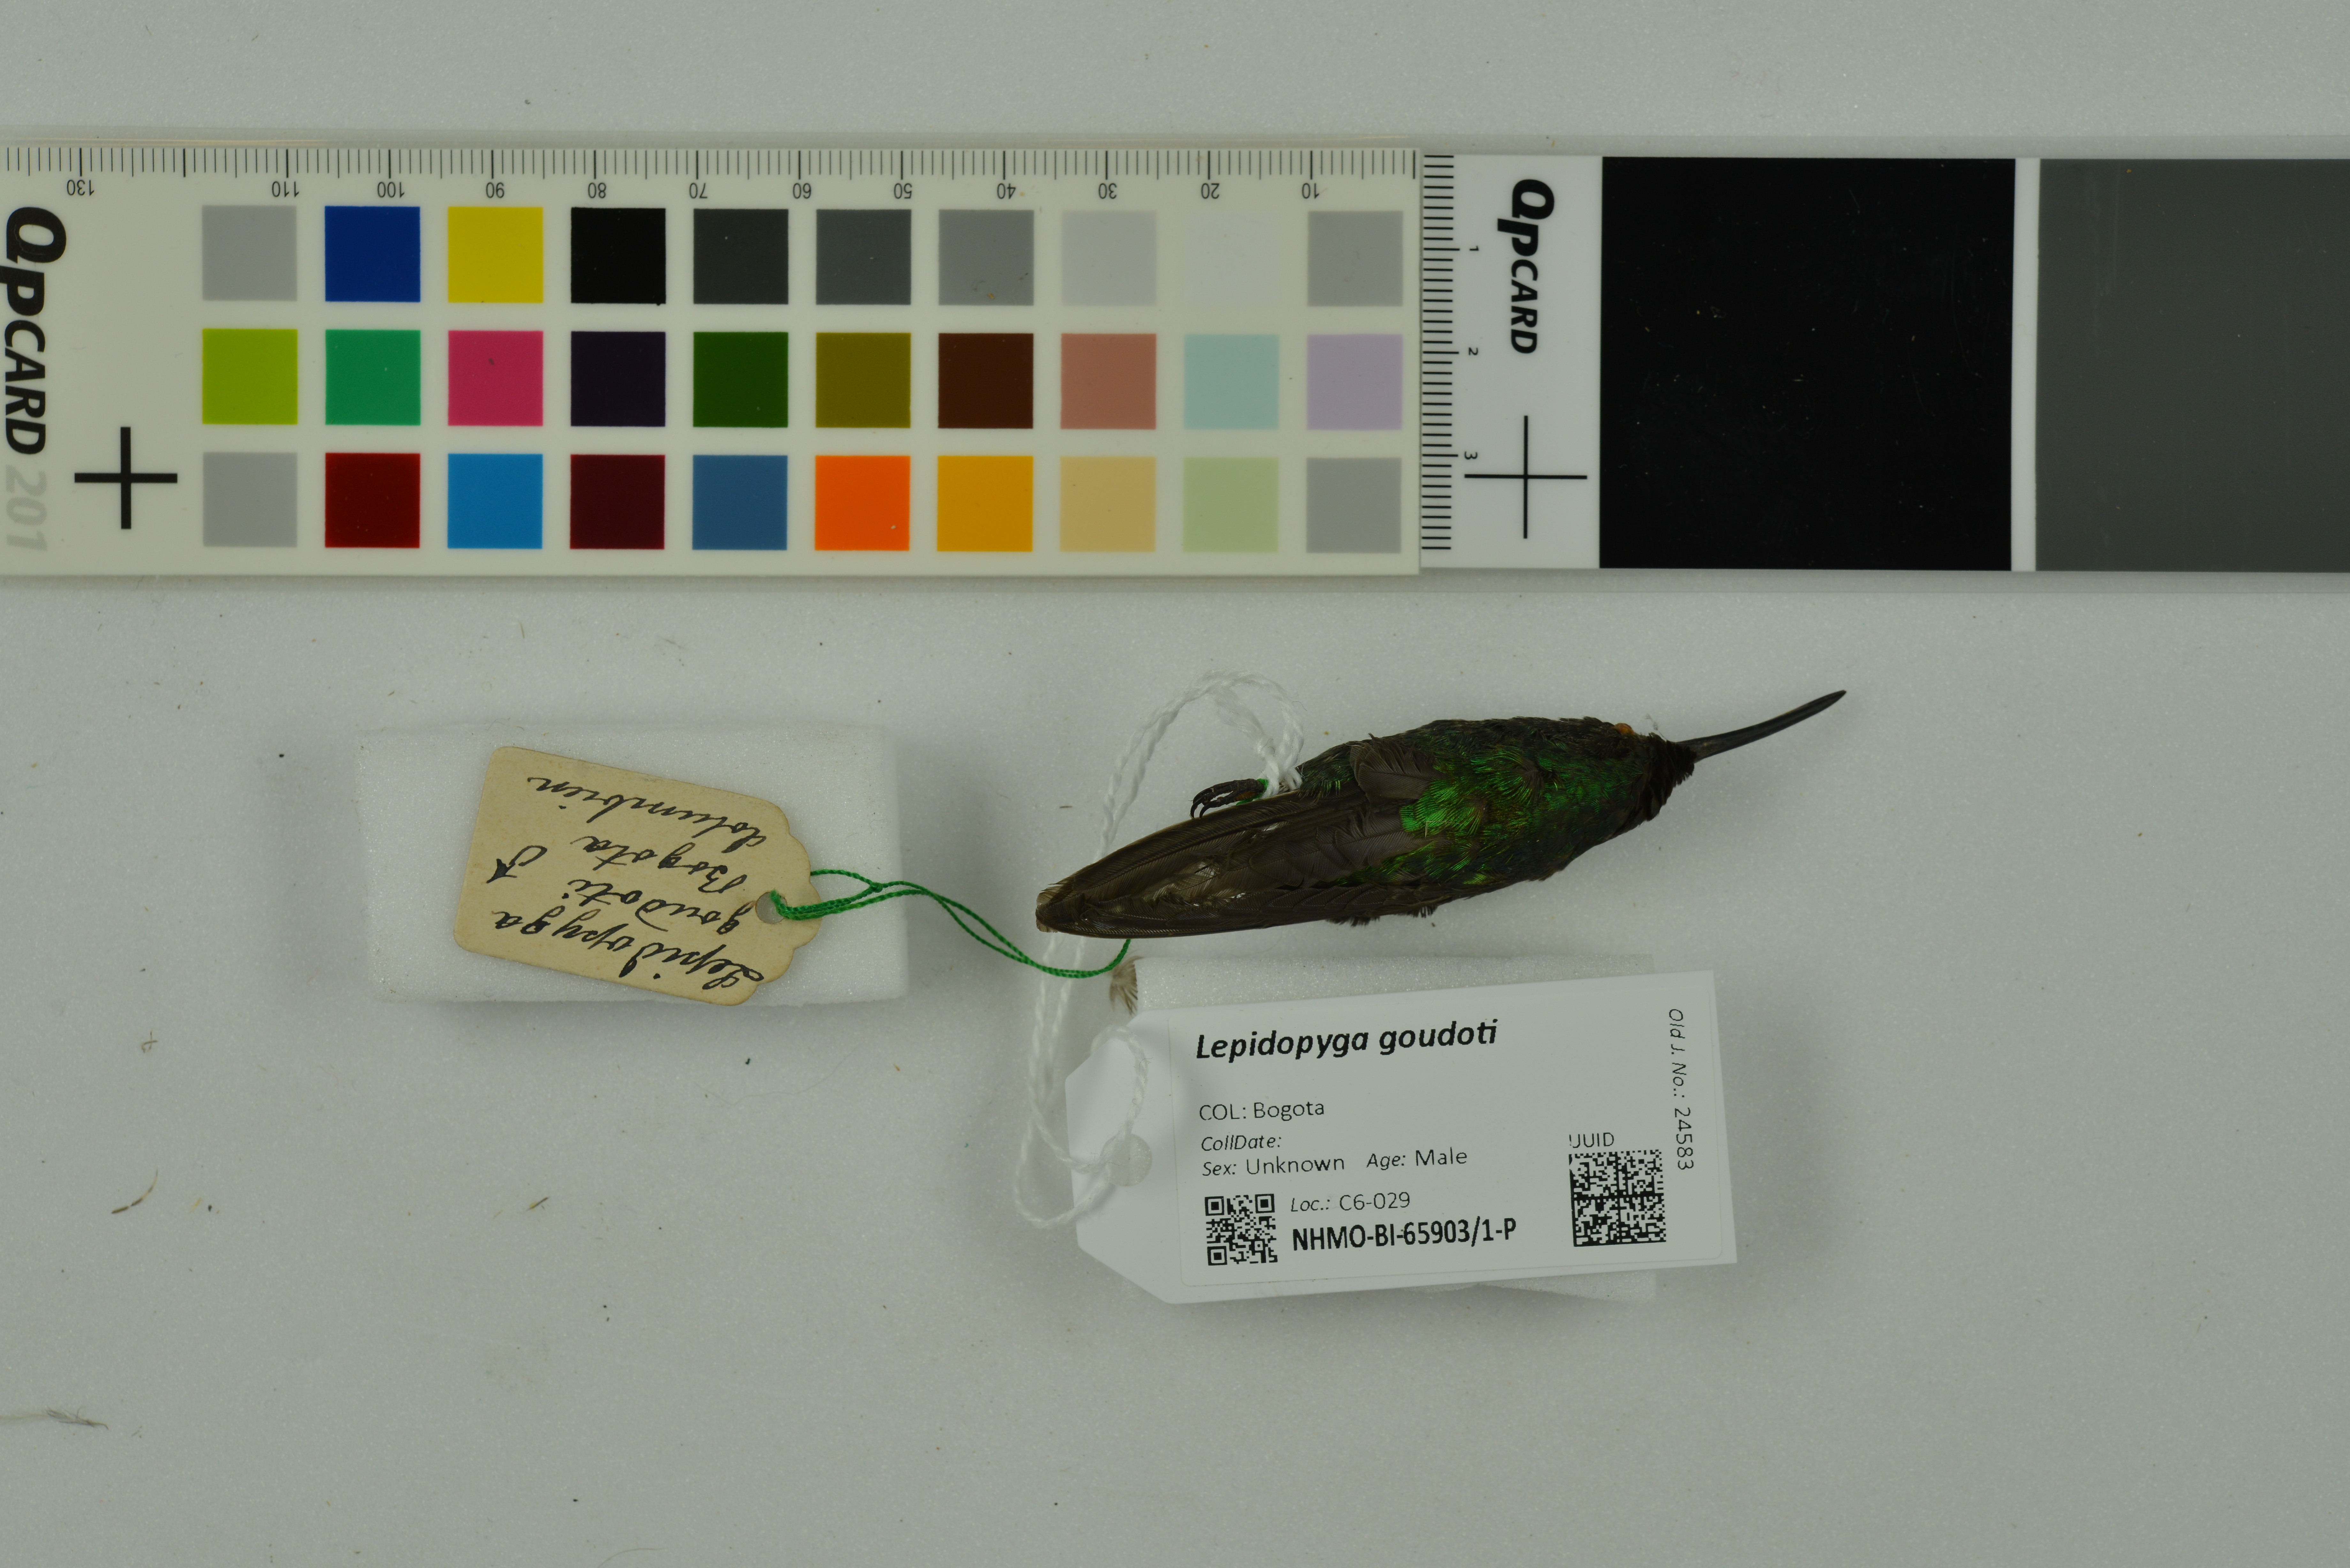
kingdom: Animalia
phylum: Chordata
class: Aves
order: Apodiformes
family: Trochilidae
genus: Chrysuronia
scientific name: Chrysuronia goudoti
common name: Shining-green hummingbird
